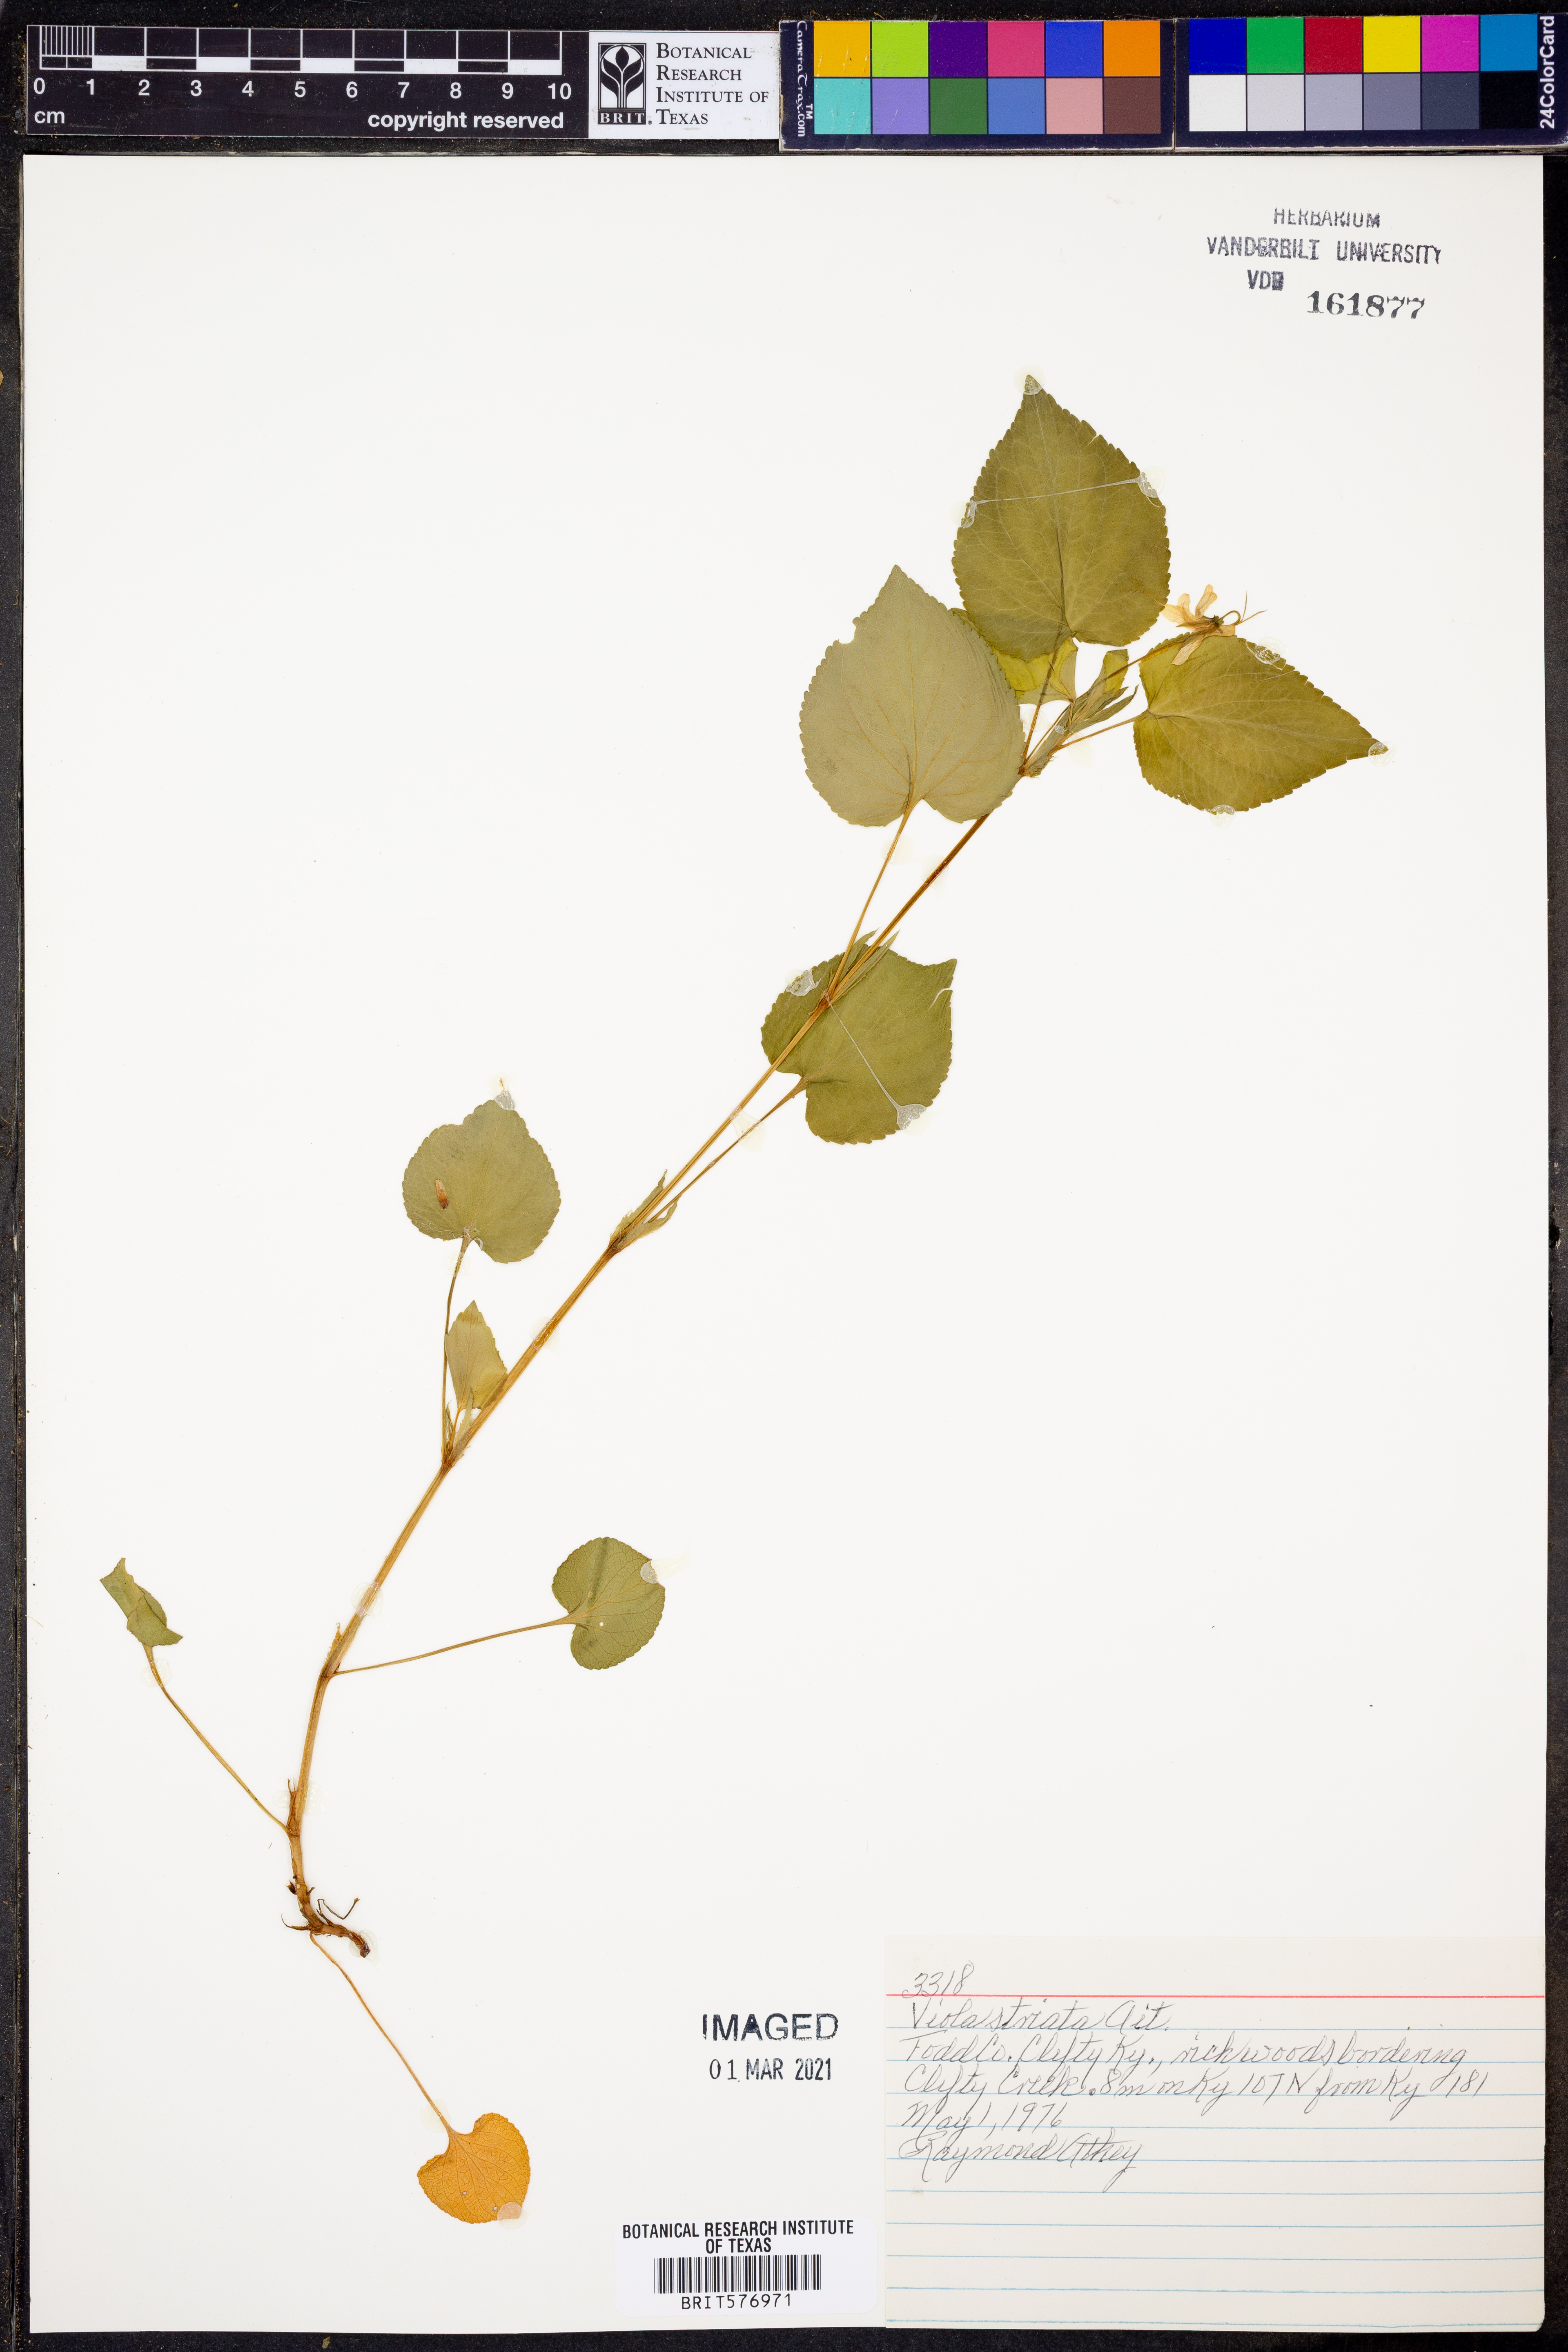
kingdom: Plantae
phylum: Tracheophyta
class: Magnoliopsida
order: Malpighiales
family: Violaceae
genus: Viola
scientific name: Viola striata
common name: Cream violet
